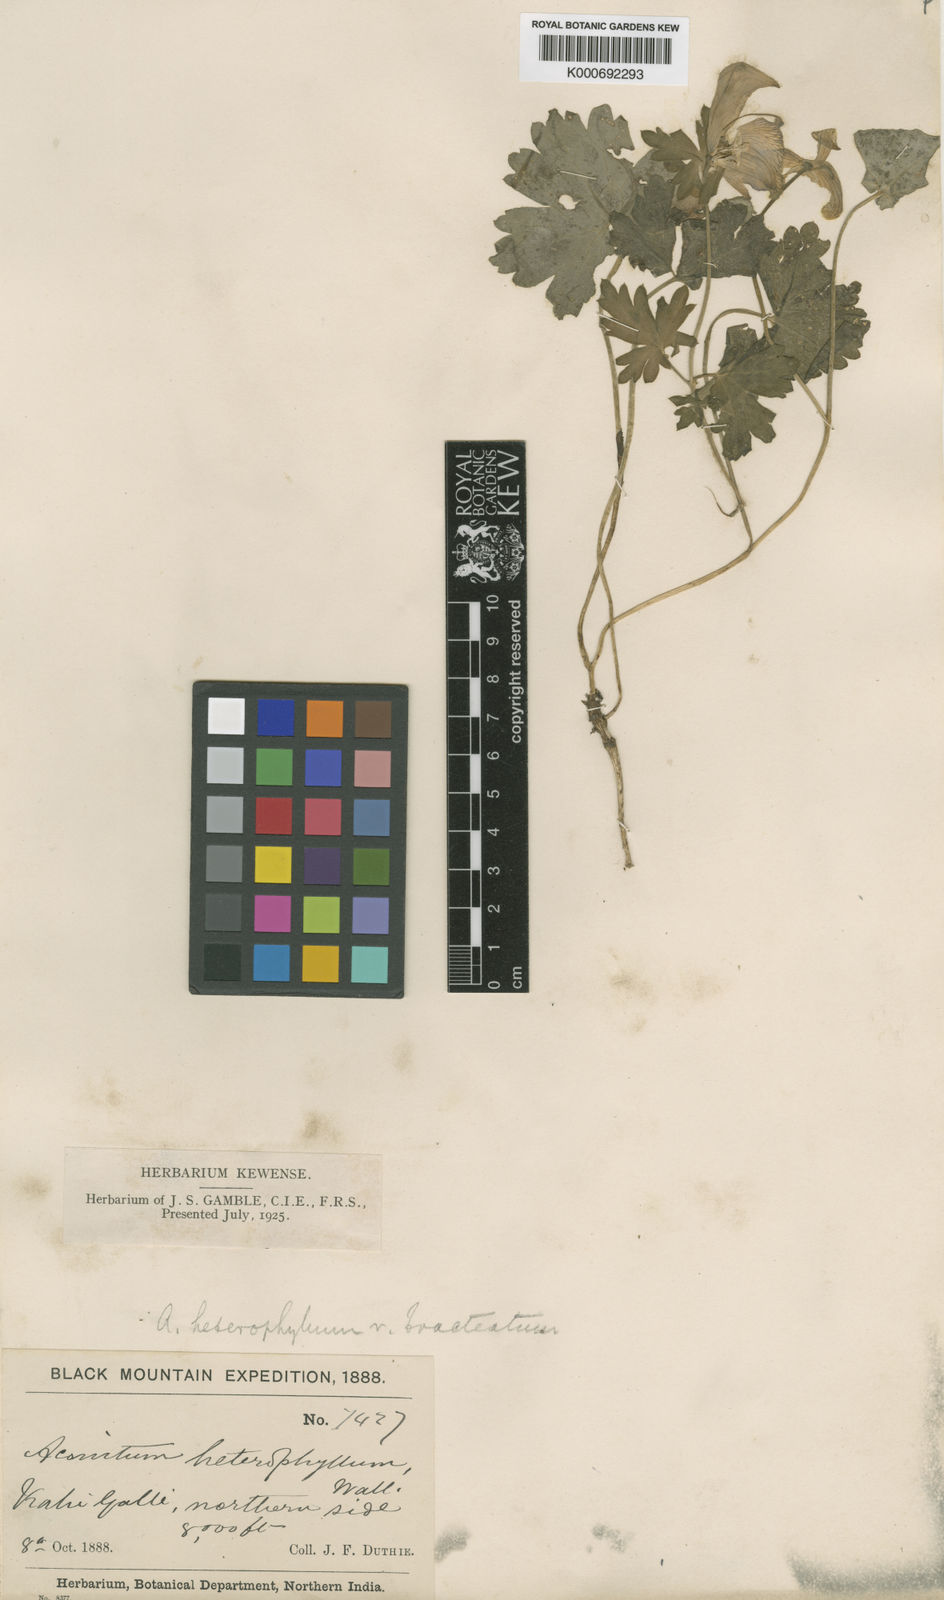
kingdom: Plantae
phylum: Tracheophyta
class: Magnoliopsida
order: Ranunculales
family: Ranunculaceae
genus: Aconitum
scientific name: Aconitum
